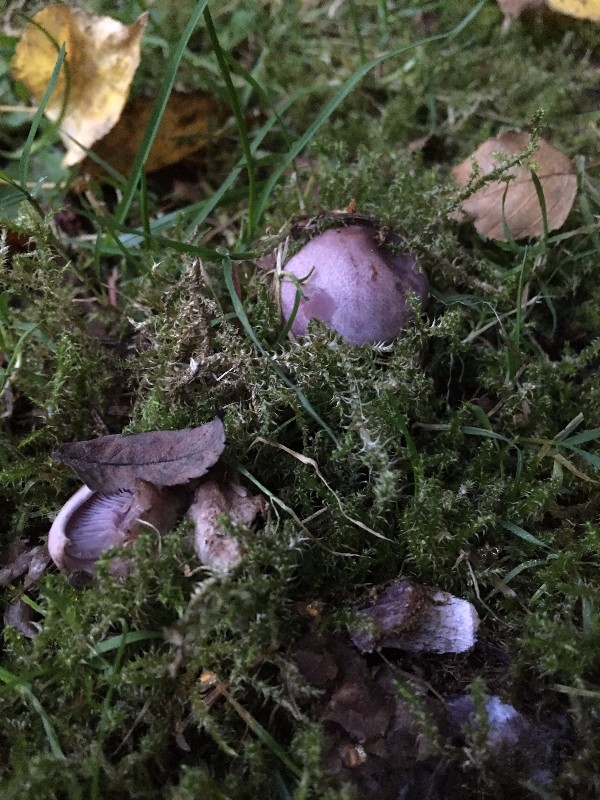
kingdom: Fungi
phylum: Basidiomycota
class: Agaricomycetes
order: Agaricales
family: Tricholomataceae
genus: Lepista
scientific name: Lepista nuda
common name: violet hekseringshat
